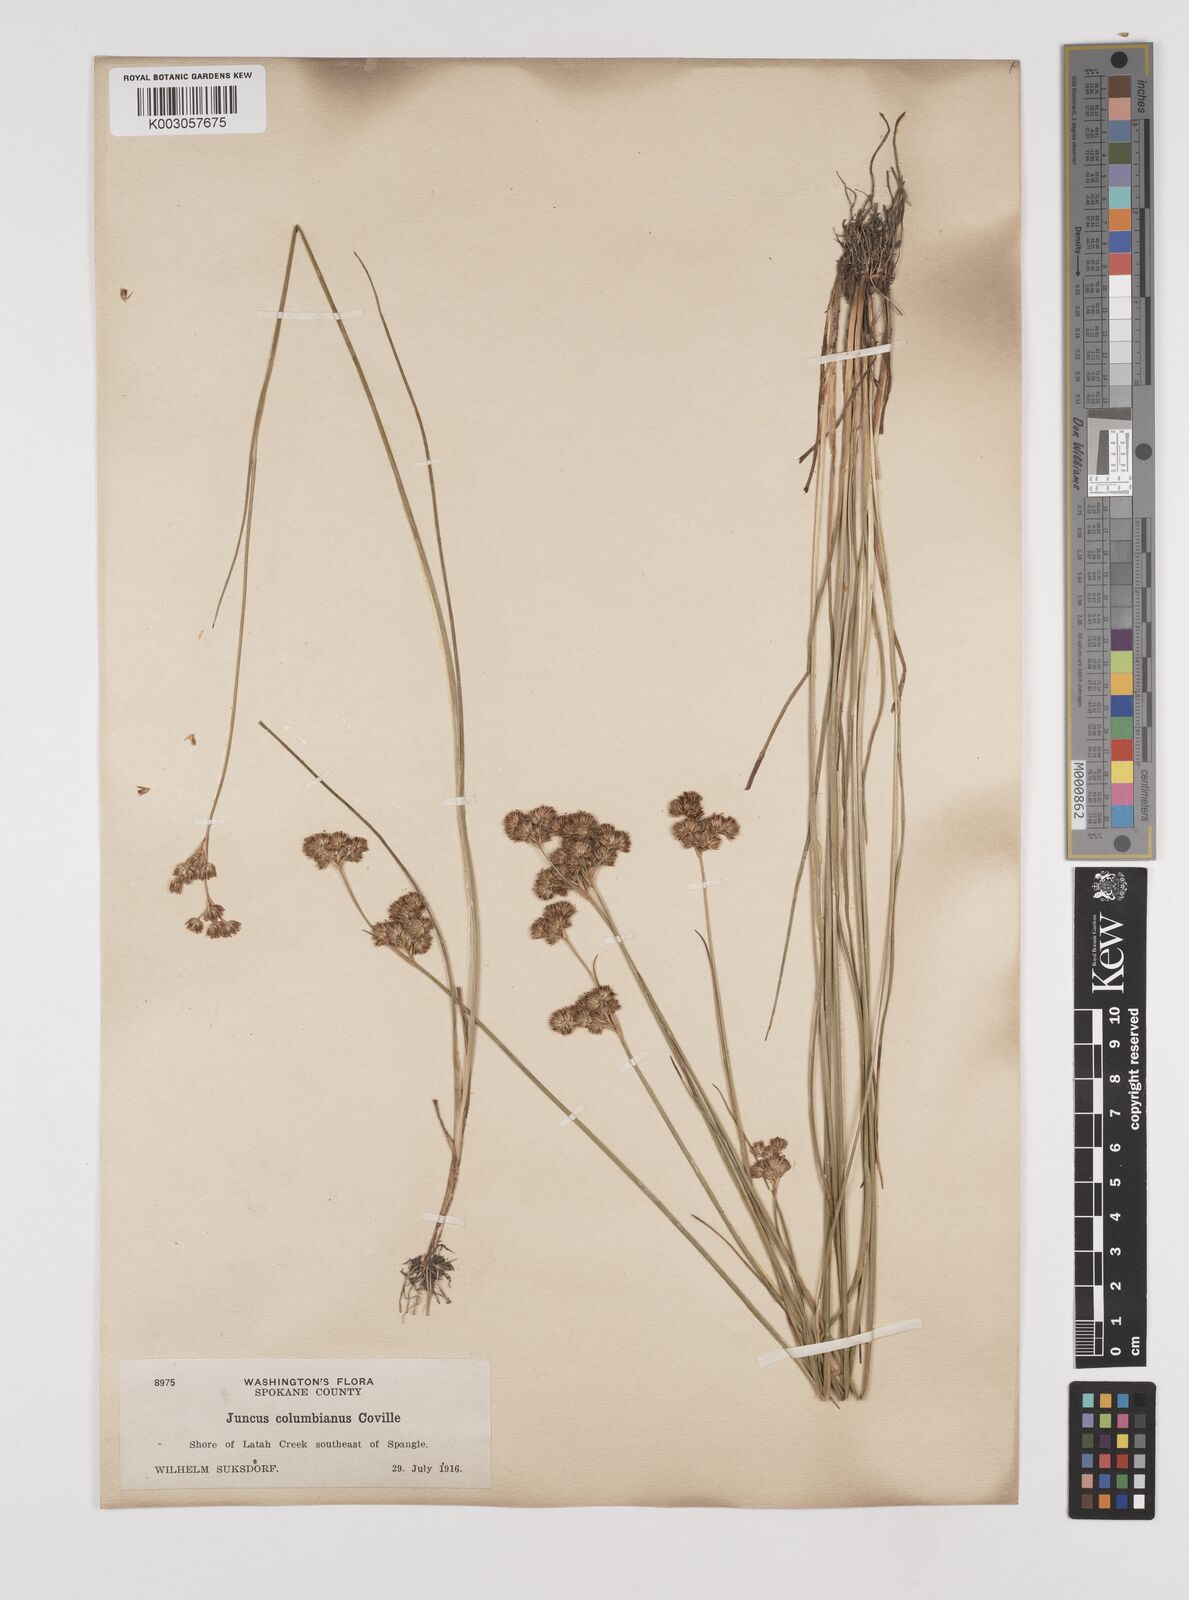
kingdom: Plantae
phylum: Tracheophyta
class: Liliopsida
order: Poales
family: Juncaceae
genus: Juncus
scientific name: Juncus nevadensis
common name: Nevada rush
